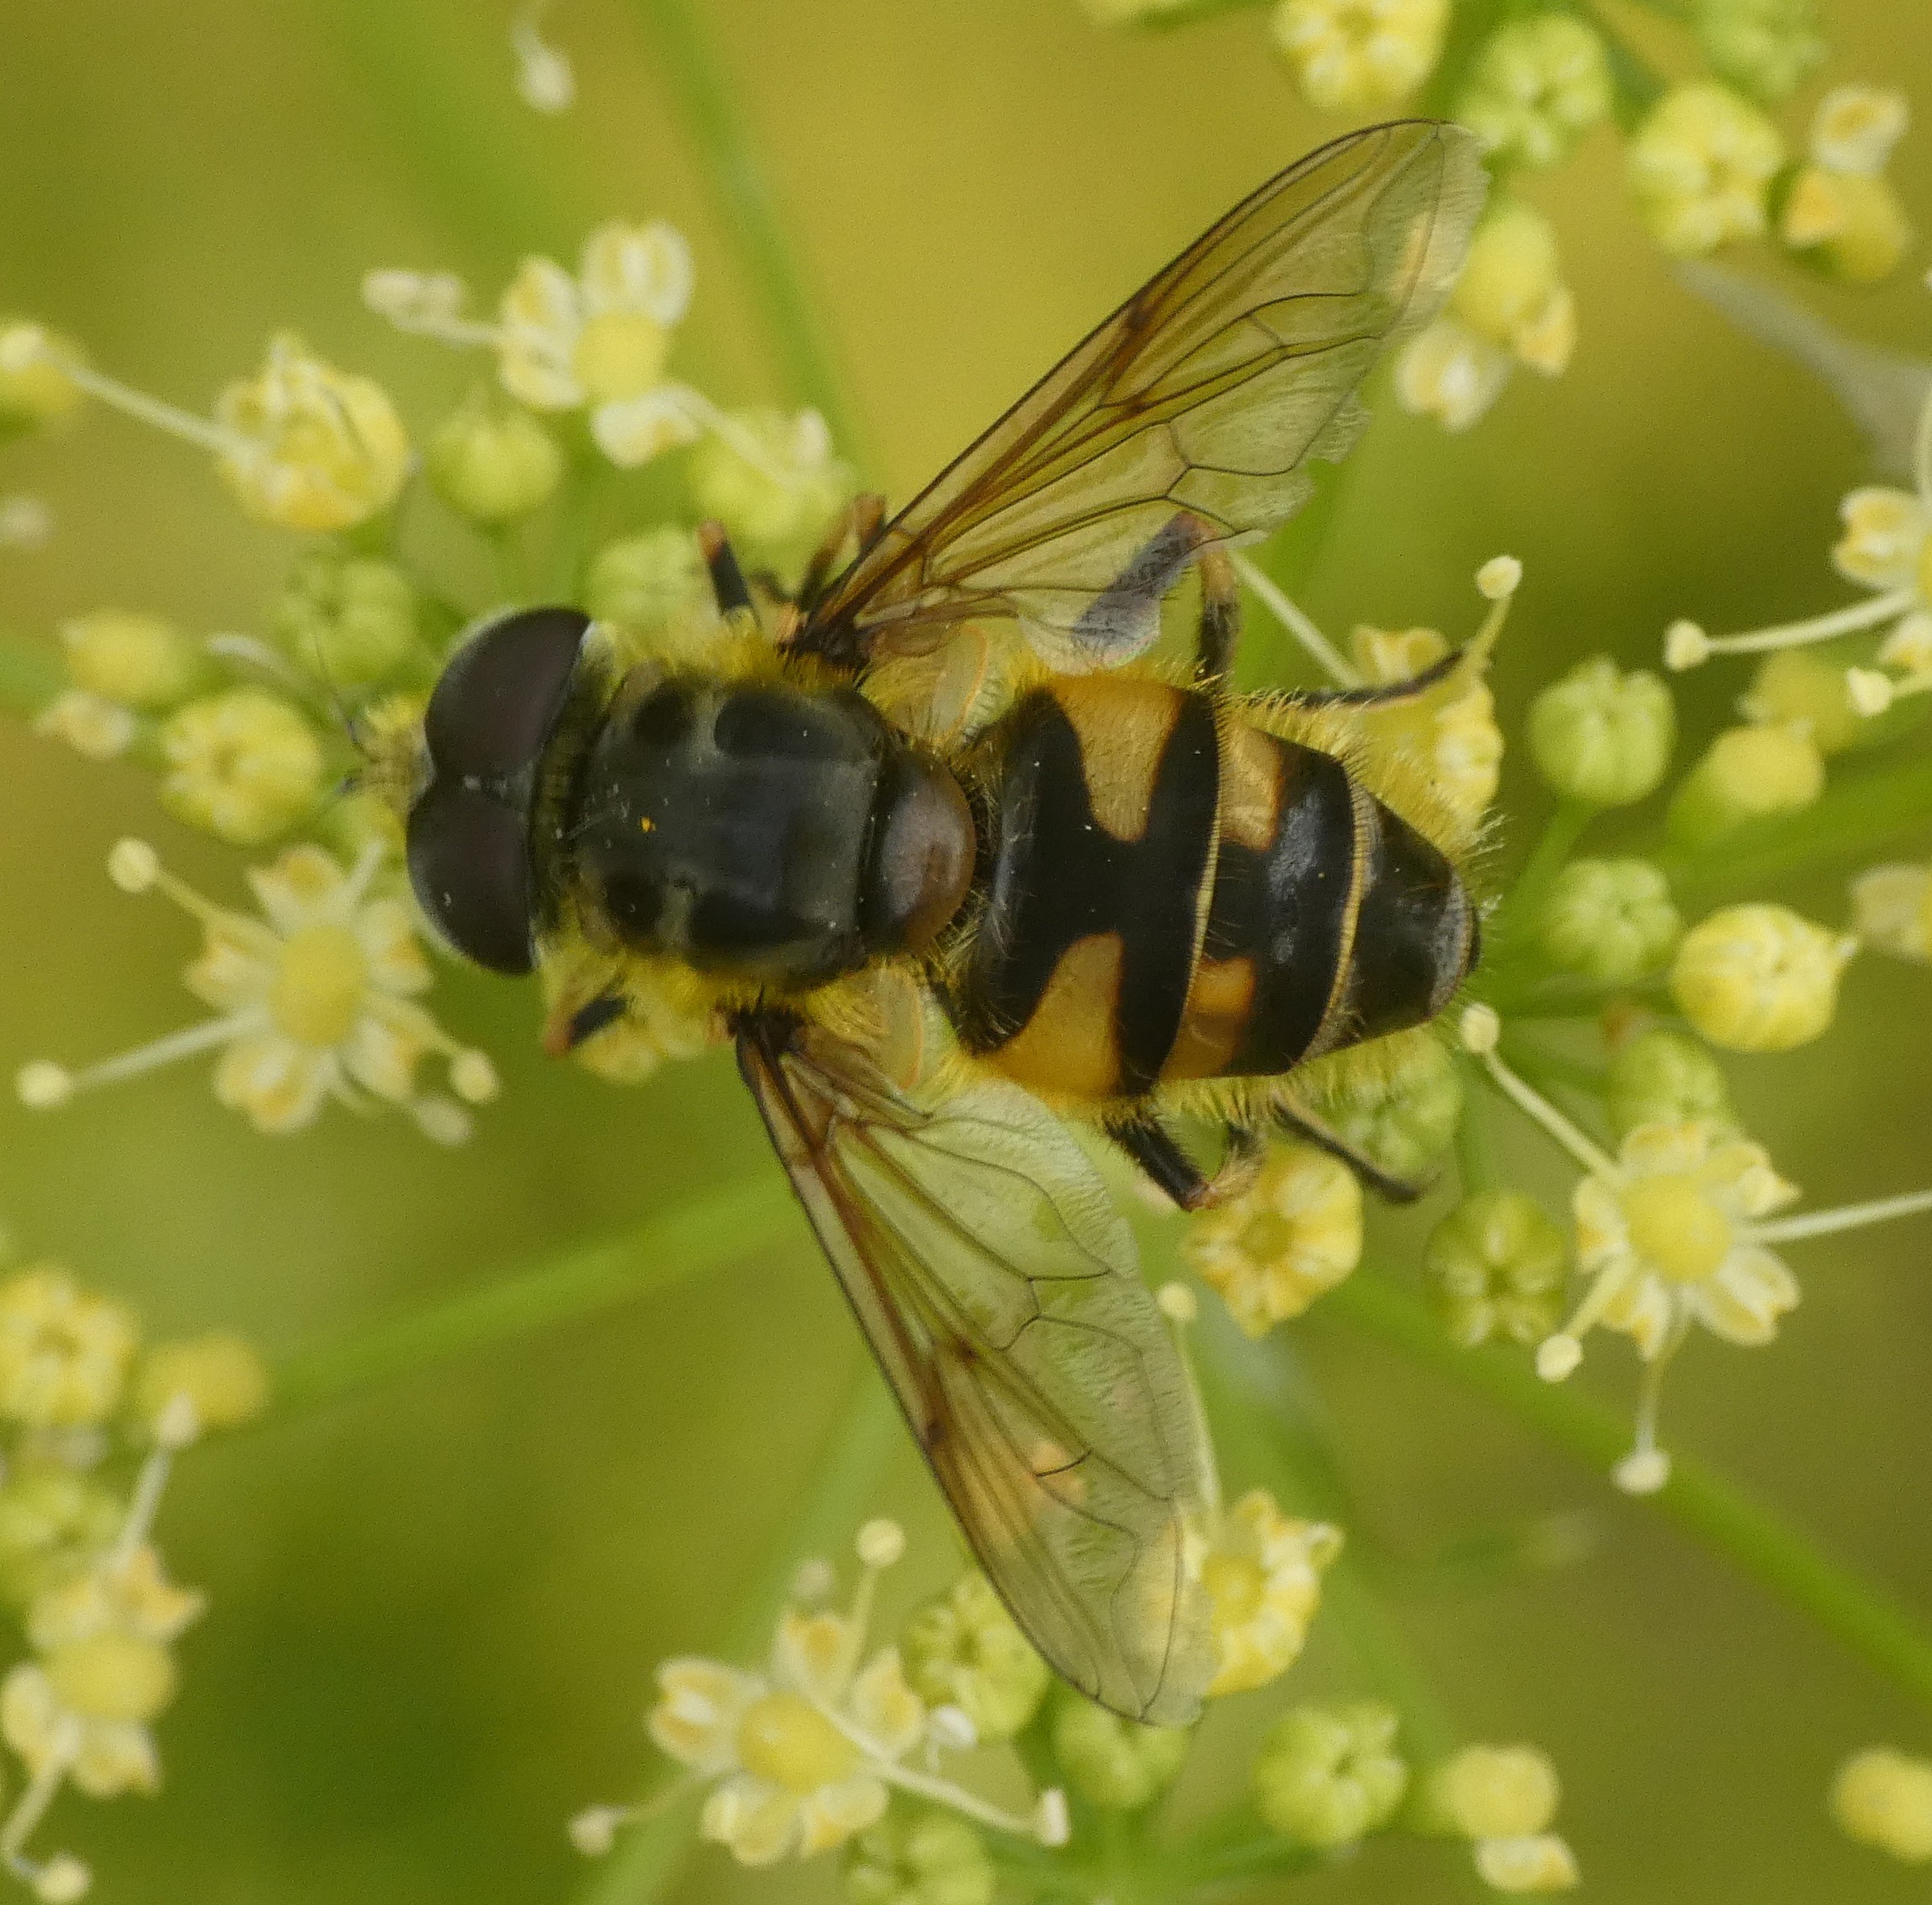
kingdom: Animalia
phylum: Arthropoda
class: Insecta
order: Diptera
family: Syrphidae
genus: Myathropa
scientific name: Myathropa florea
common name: Dødningehoved-svirreflue
